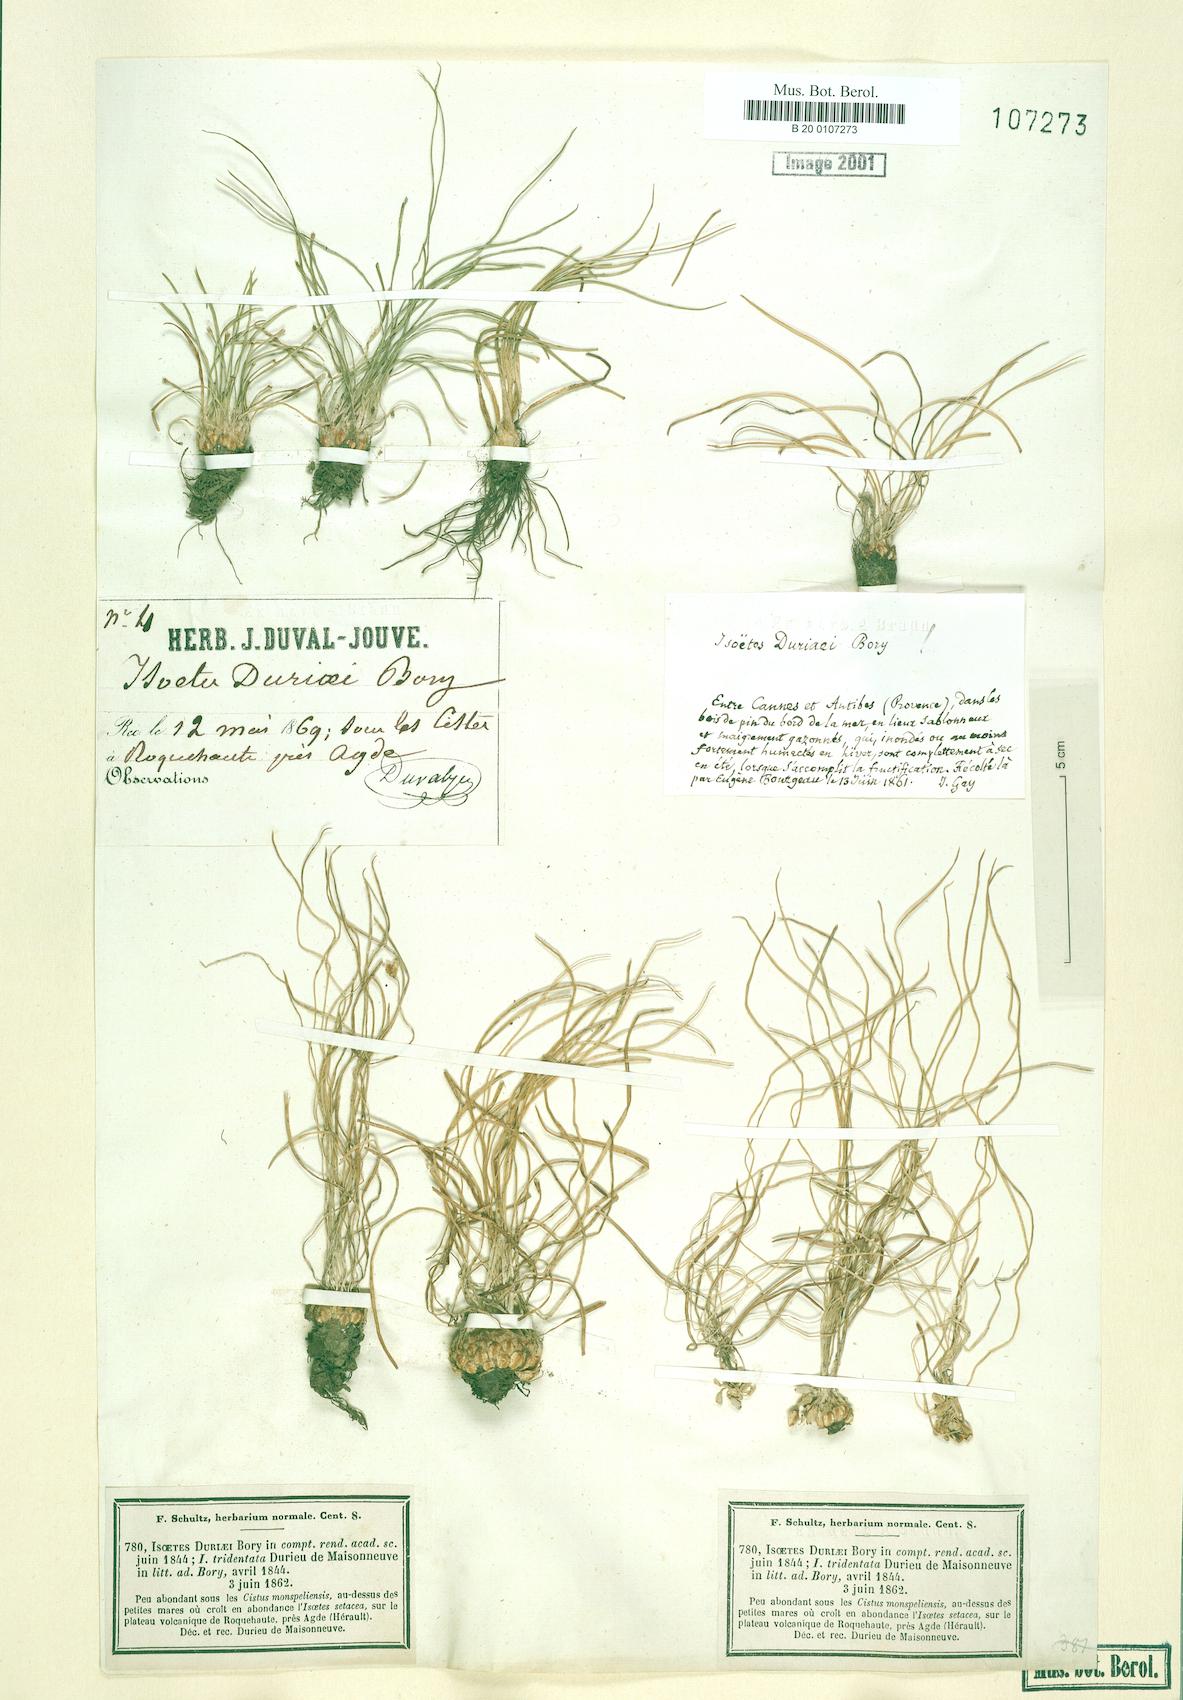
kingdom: Plantae
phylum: Tracheophyta
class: Lycopodiopsida
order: Isoetales
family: Isoetaceae
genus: Isoetes
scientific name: Isoetes duriei
